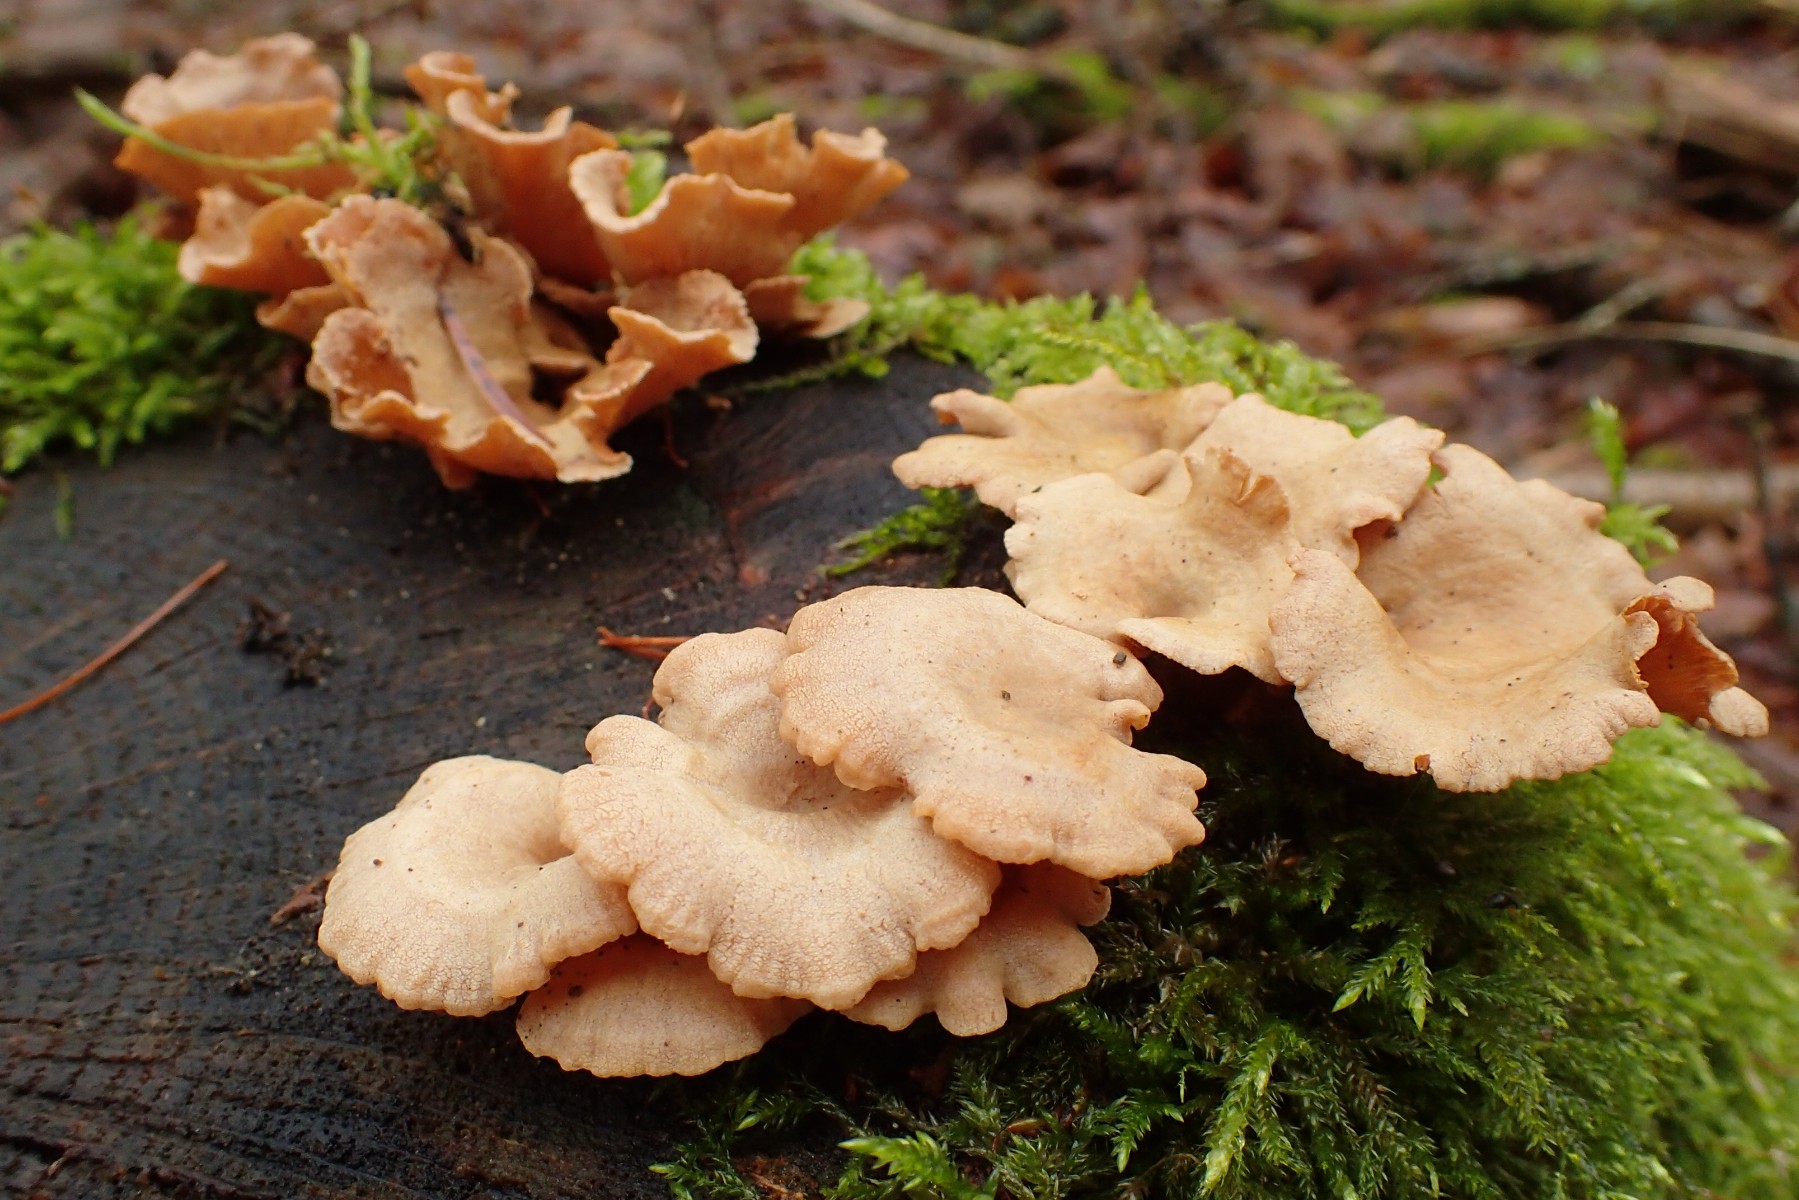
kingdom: Fungi
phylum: Basidiomycota
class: Agaricomycetes
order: Agaricales
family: Mycenaceae
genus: Panellus
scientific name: Panellus stipticus
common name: kliddet epaulethat
